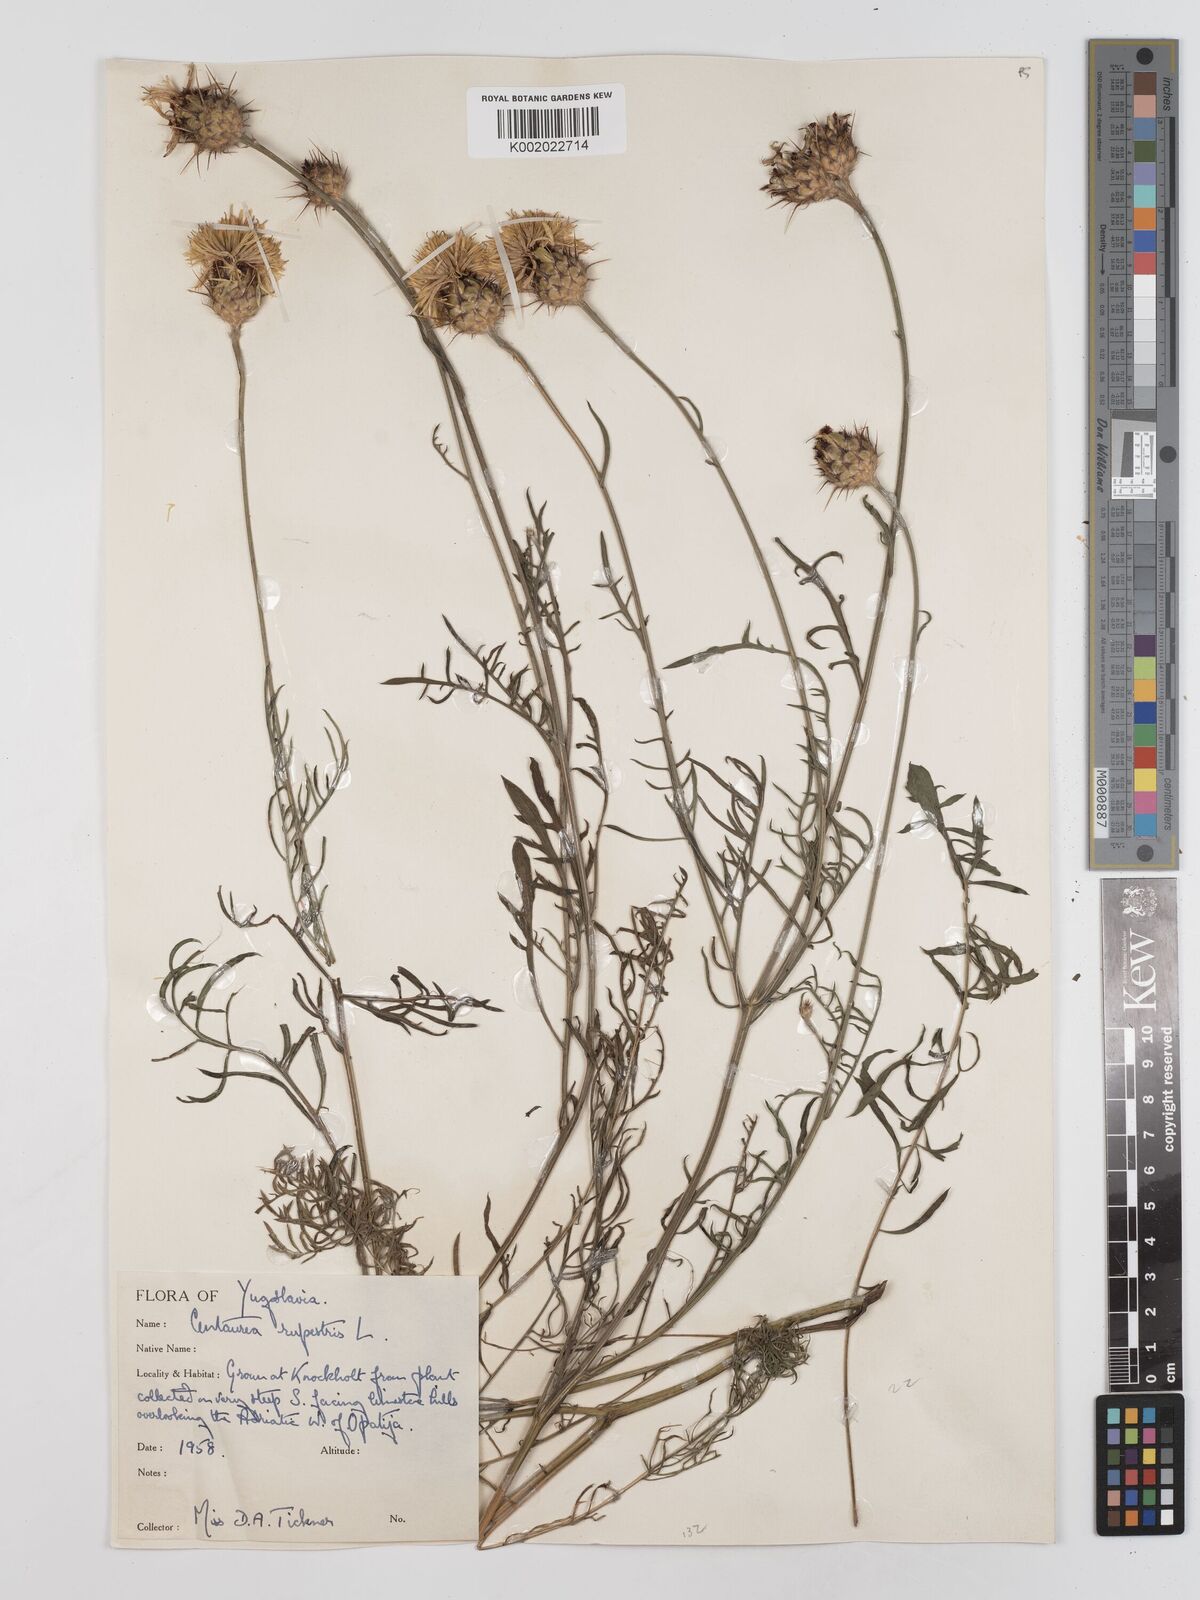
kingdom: Plantae
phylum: Tracheophyta
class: Magnoliopsida
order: Asterales
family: Asteraceae
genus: Centaurea
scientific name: Centaurea rupestris
